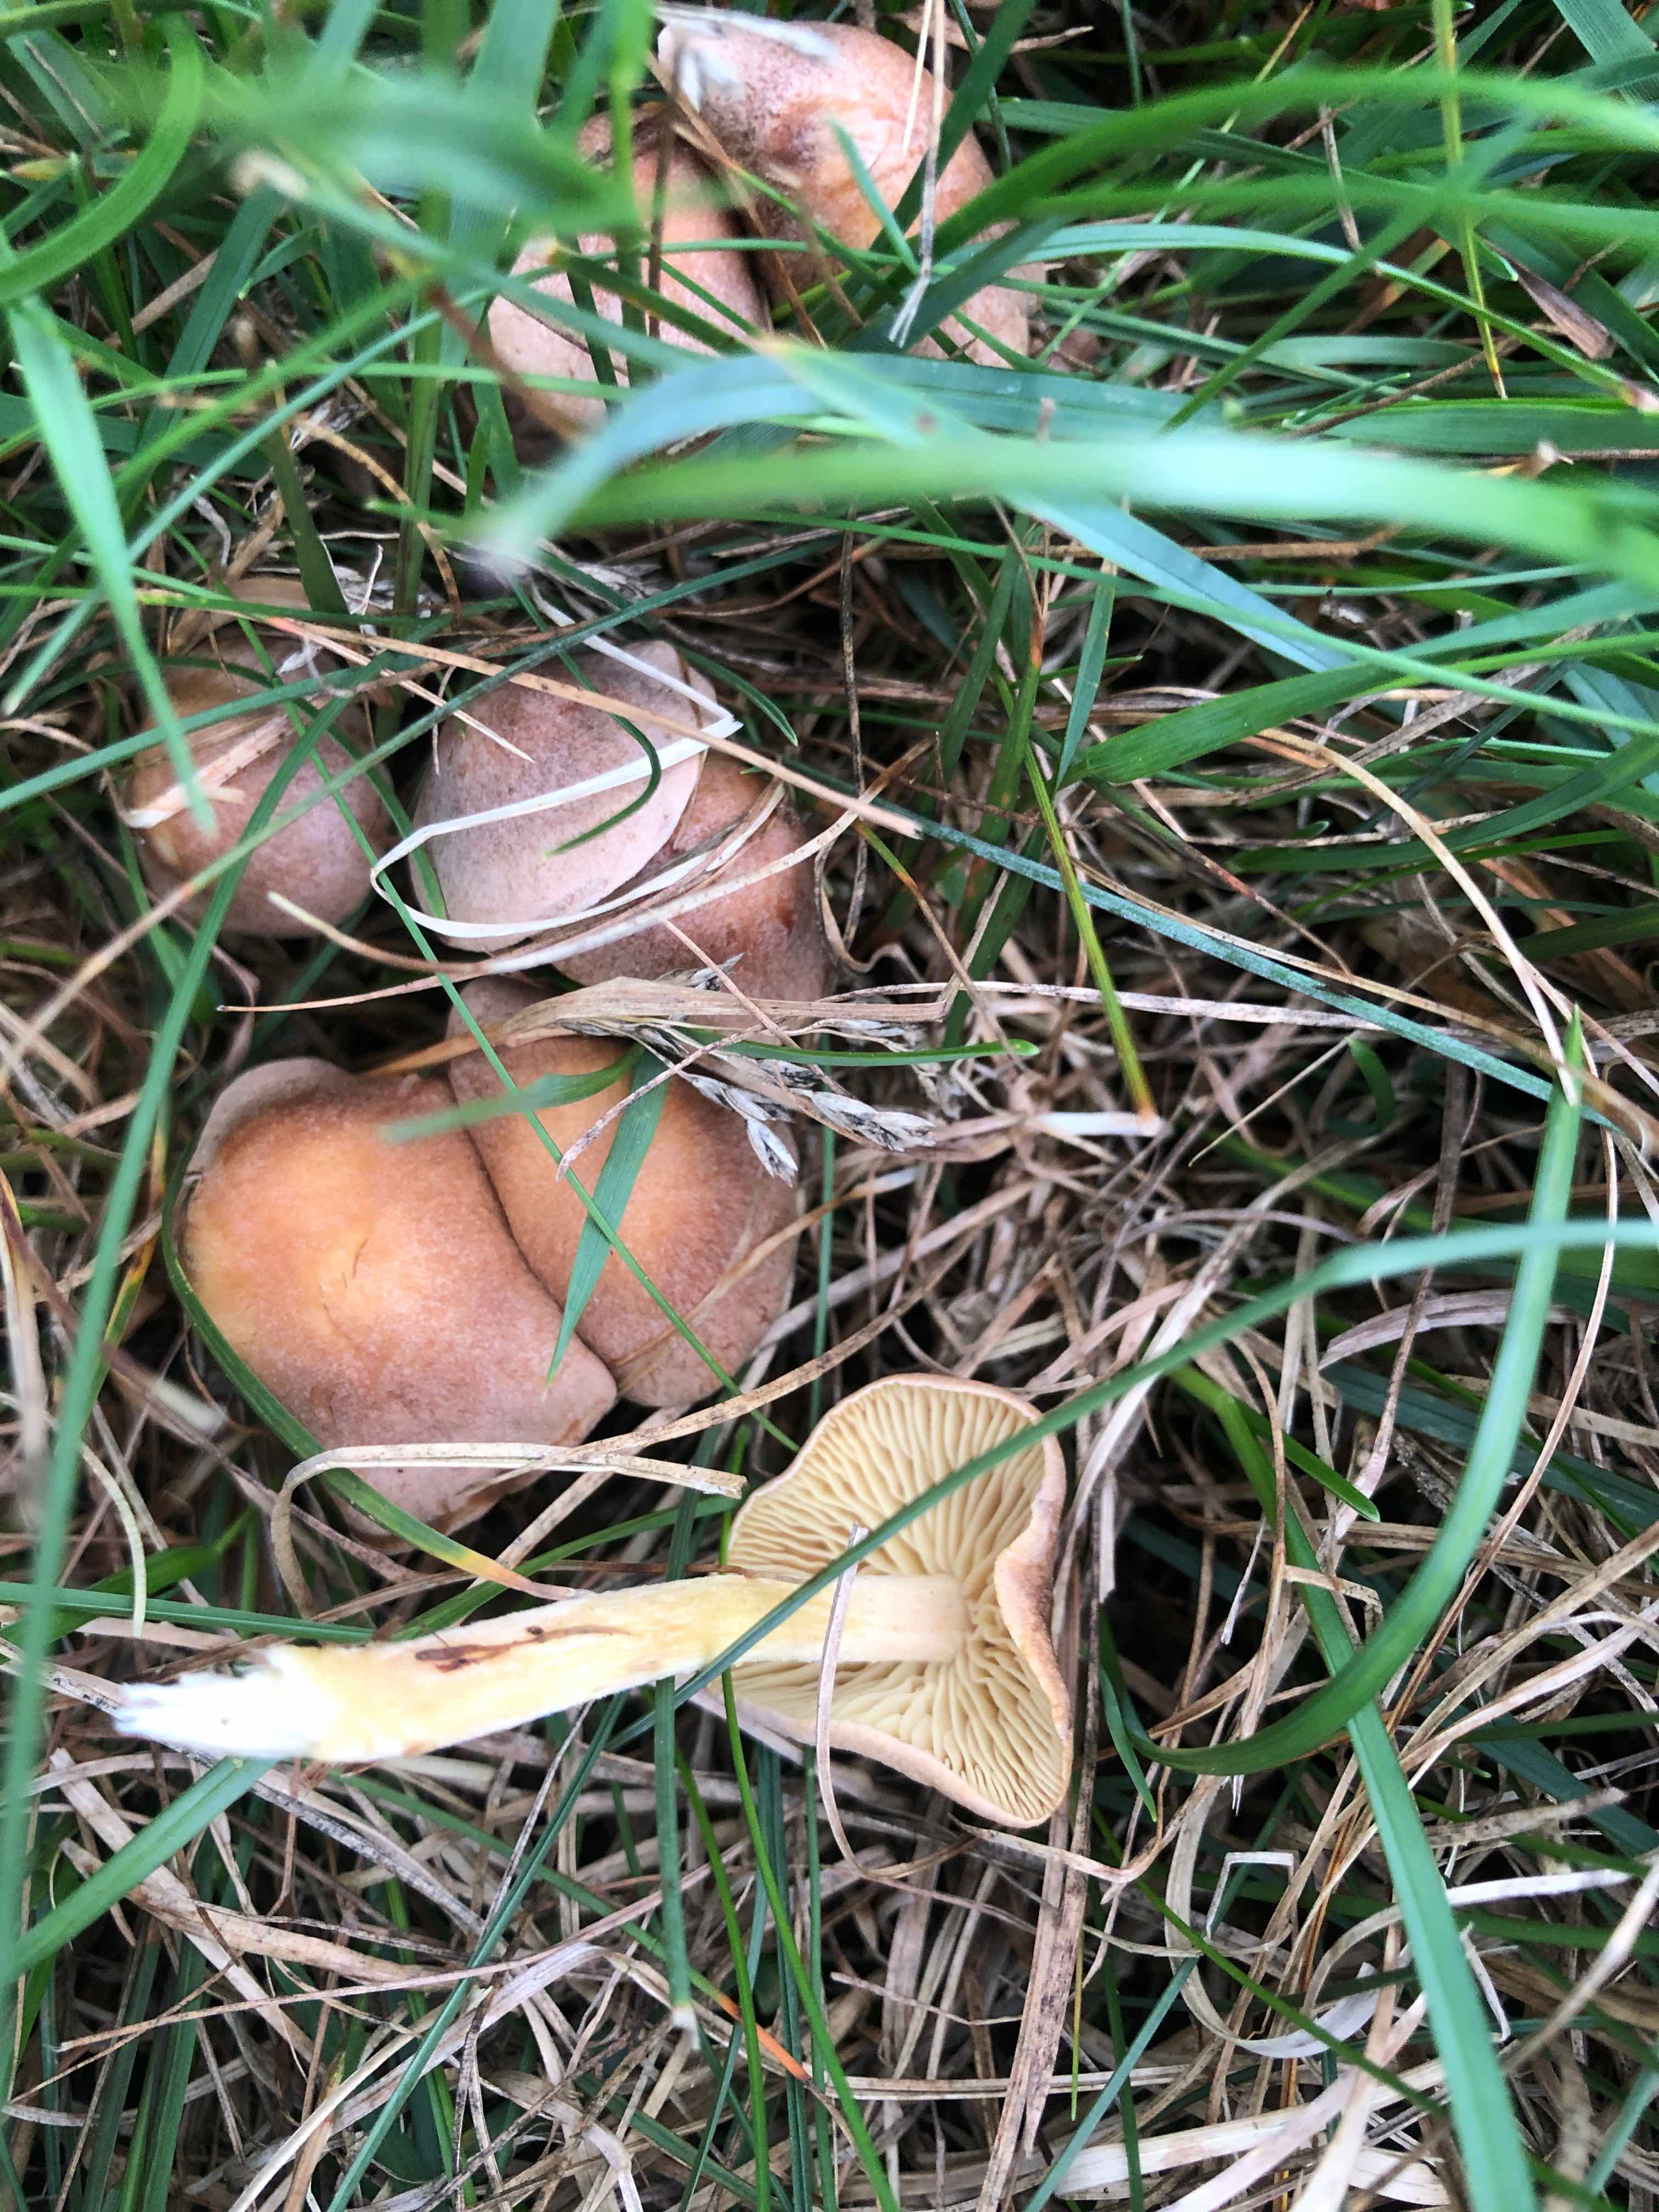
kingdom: Fungi
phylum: Basidiomycota
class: Agaricomycetes
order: Agaricales
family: Omphalotaceae
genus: Collybiopsis
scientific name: Collybiopsis peronata
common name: bestøvlet fladhat
